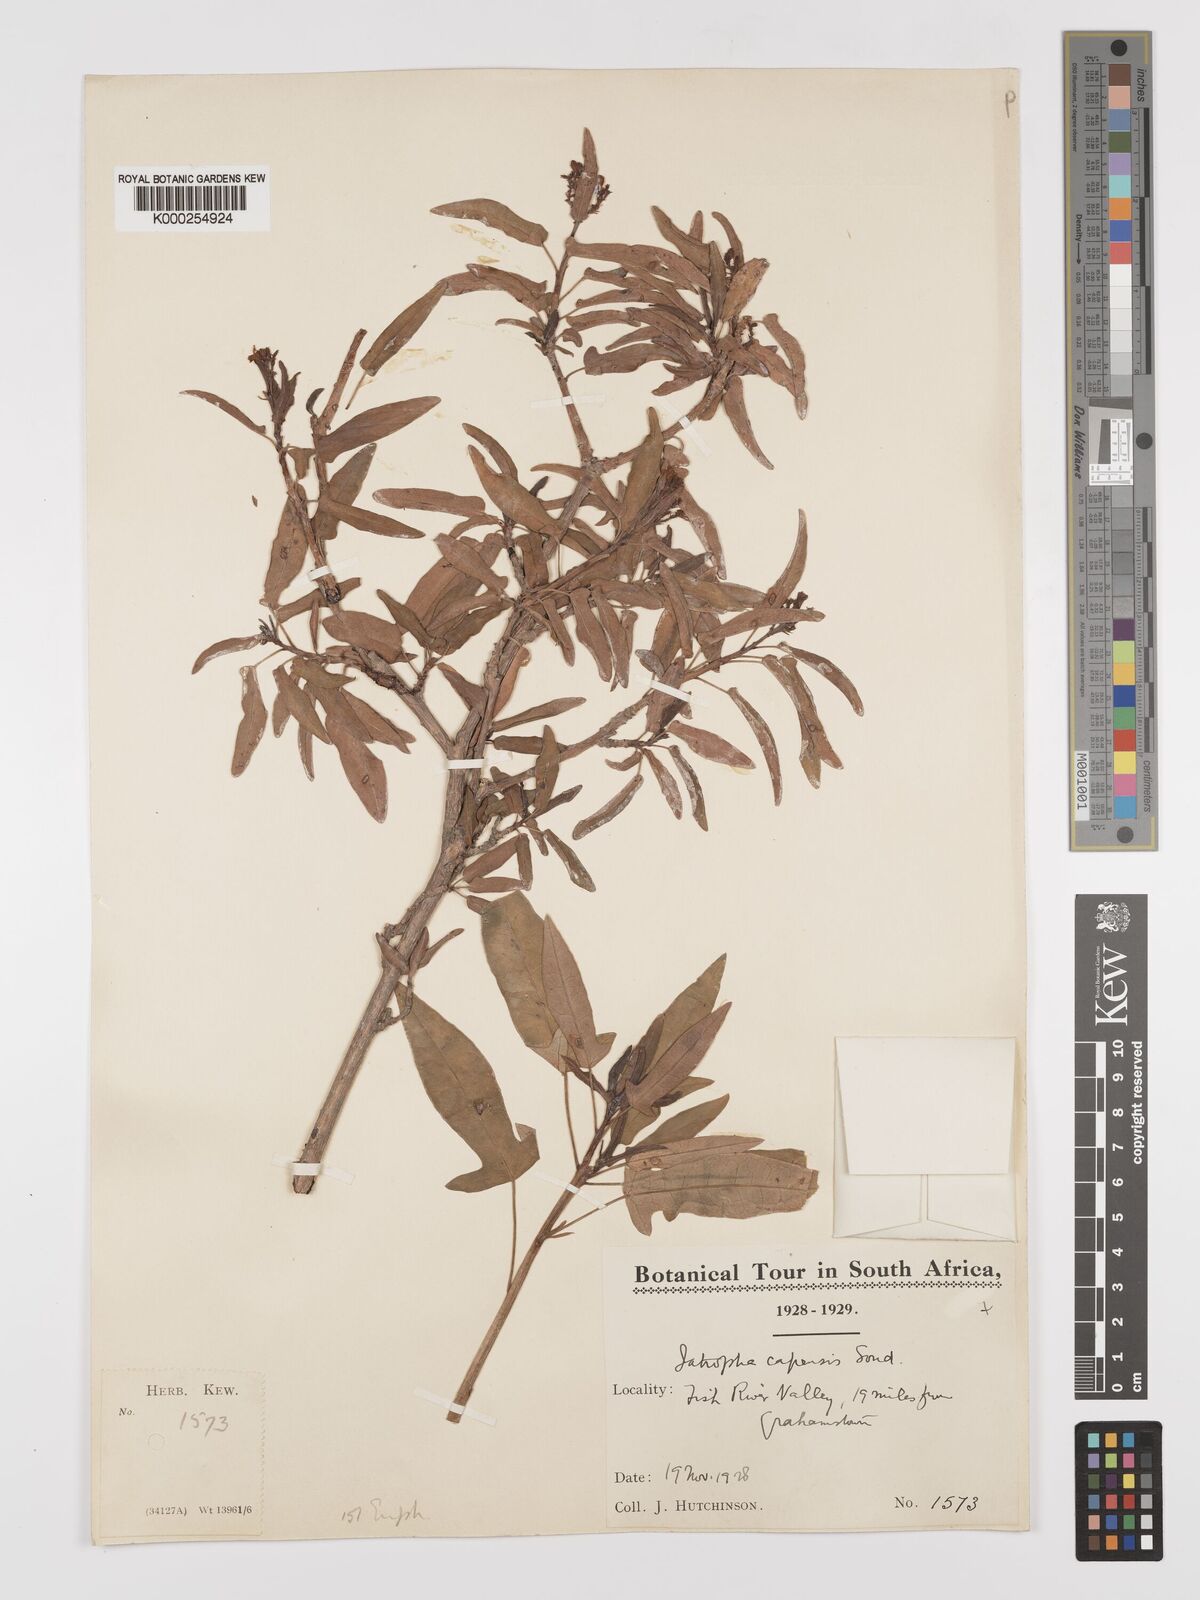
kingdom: Plantae
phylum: Tracheophyta
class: Magnoliopsida
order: Malpighiales
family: Euphorbiaceae
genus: Jatropha
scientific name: Jatropha capensis
